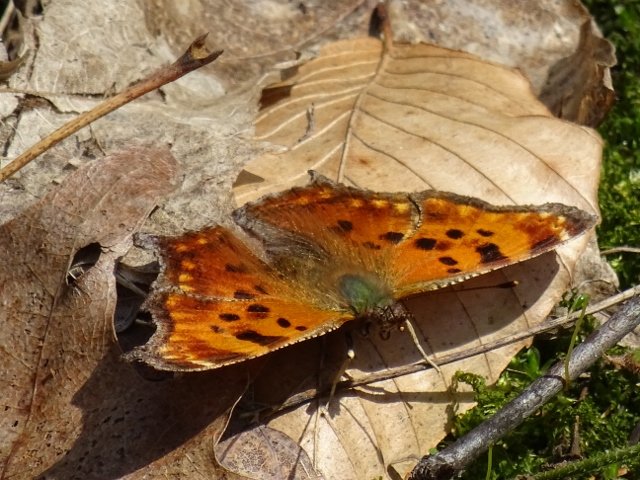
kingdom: Animalia
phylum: Arthropoda
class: Insecta
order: Lepidoptera
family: Nymphalidae
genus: Polygonia
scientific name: Polygonia comma
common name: Eastern Comma
